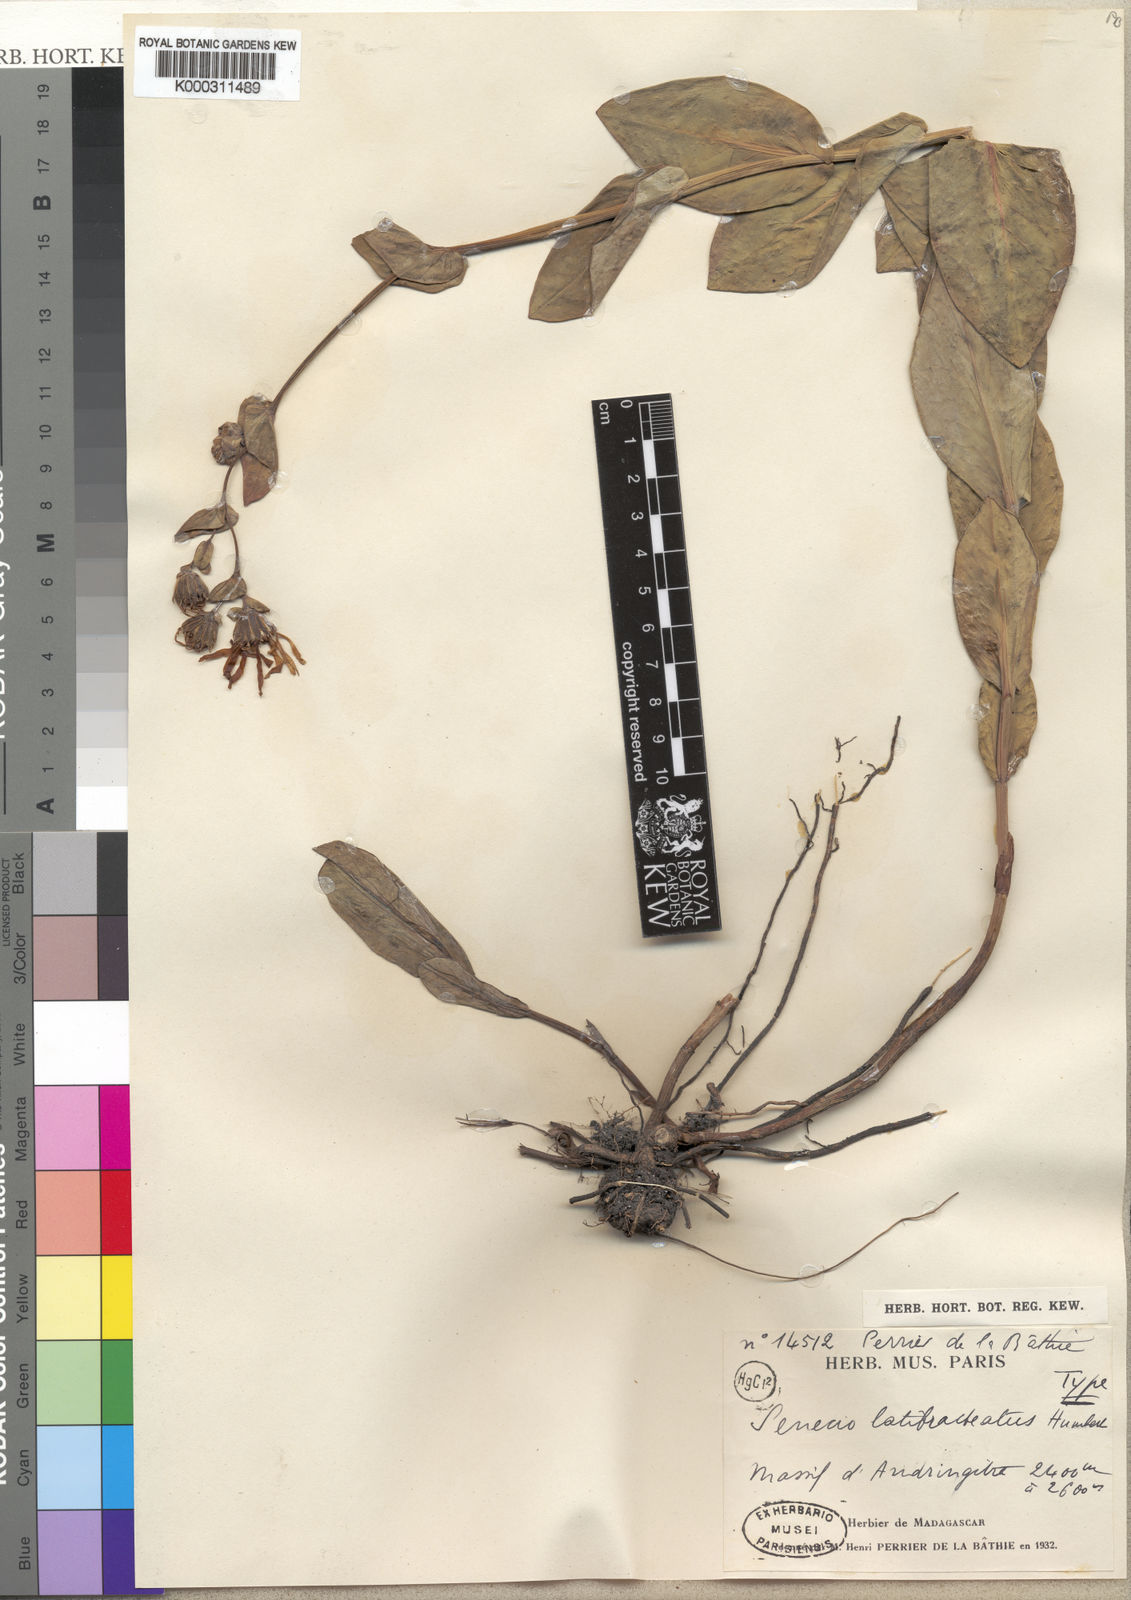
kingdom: Plantae
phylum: Tracheophyta
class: Magnoliopsida
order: Asterales
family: Asteraceae
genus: Senecio
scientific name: Senecio latibracteatus
